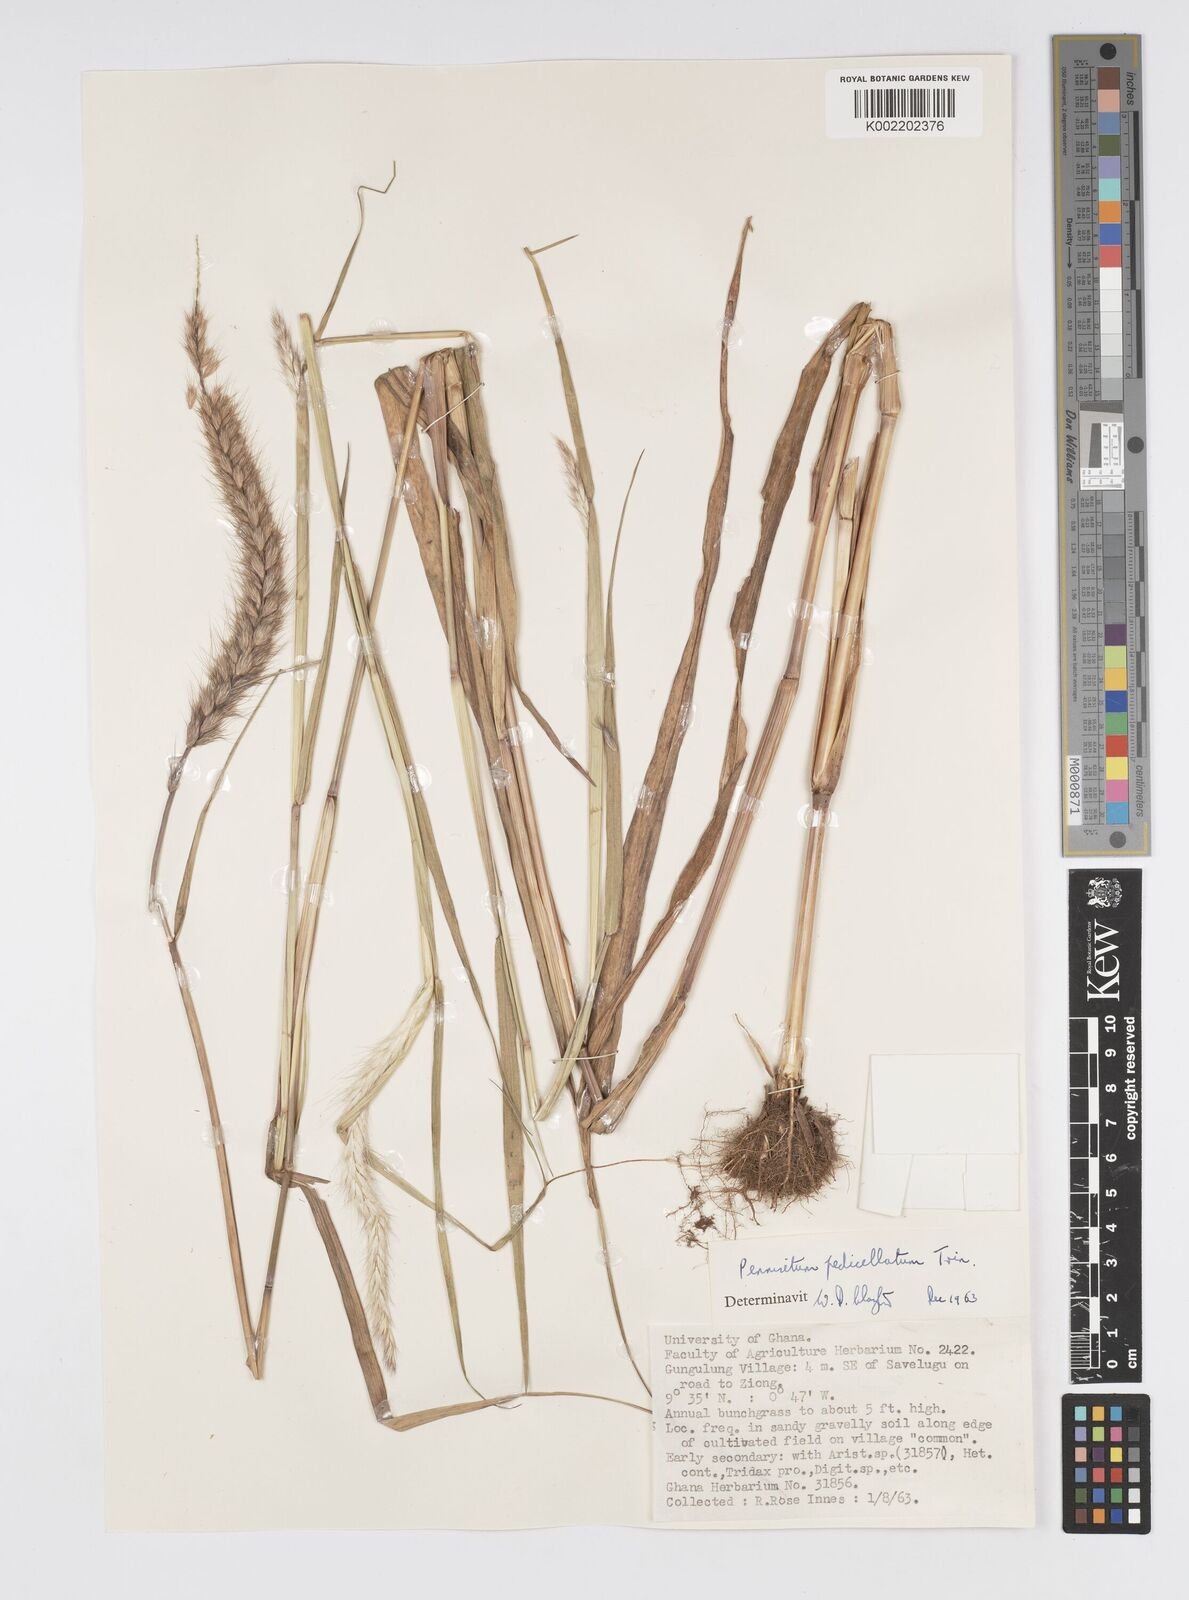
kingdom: Plantae
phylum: Tracheophyta
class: Liliopsida
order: Poales
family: Poaceae
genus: Cenchrus
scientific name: Cenchrus pedicellatus
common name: Hairy fountain grass
